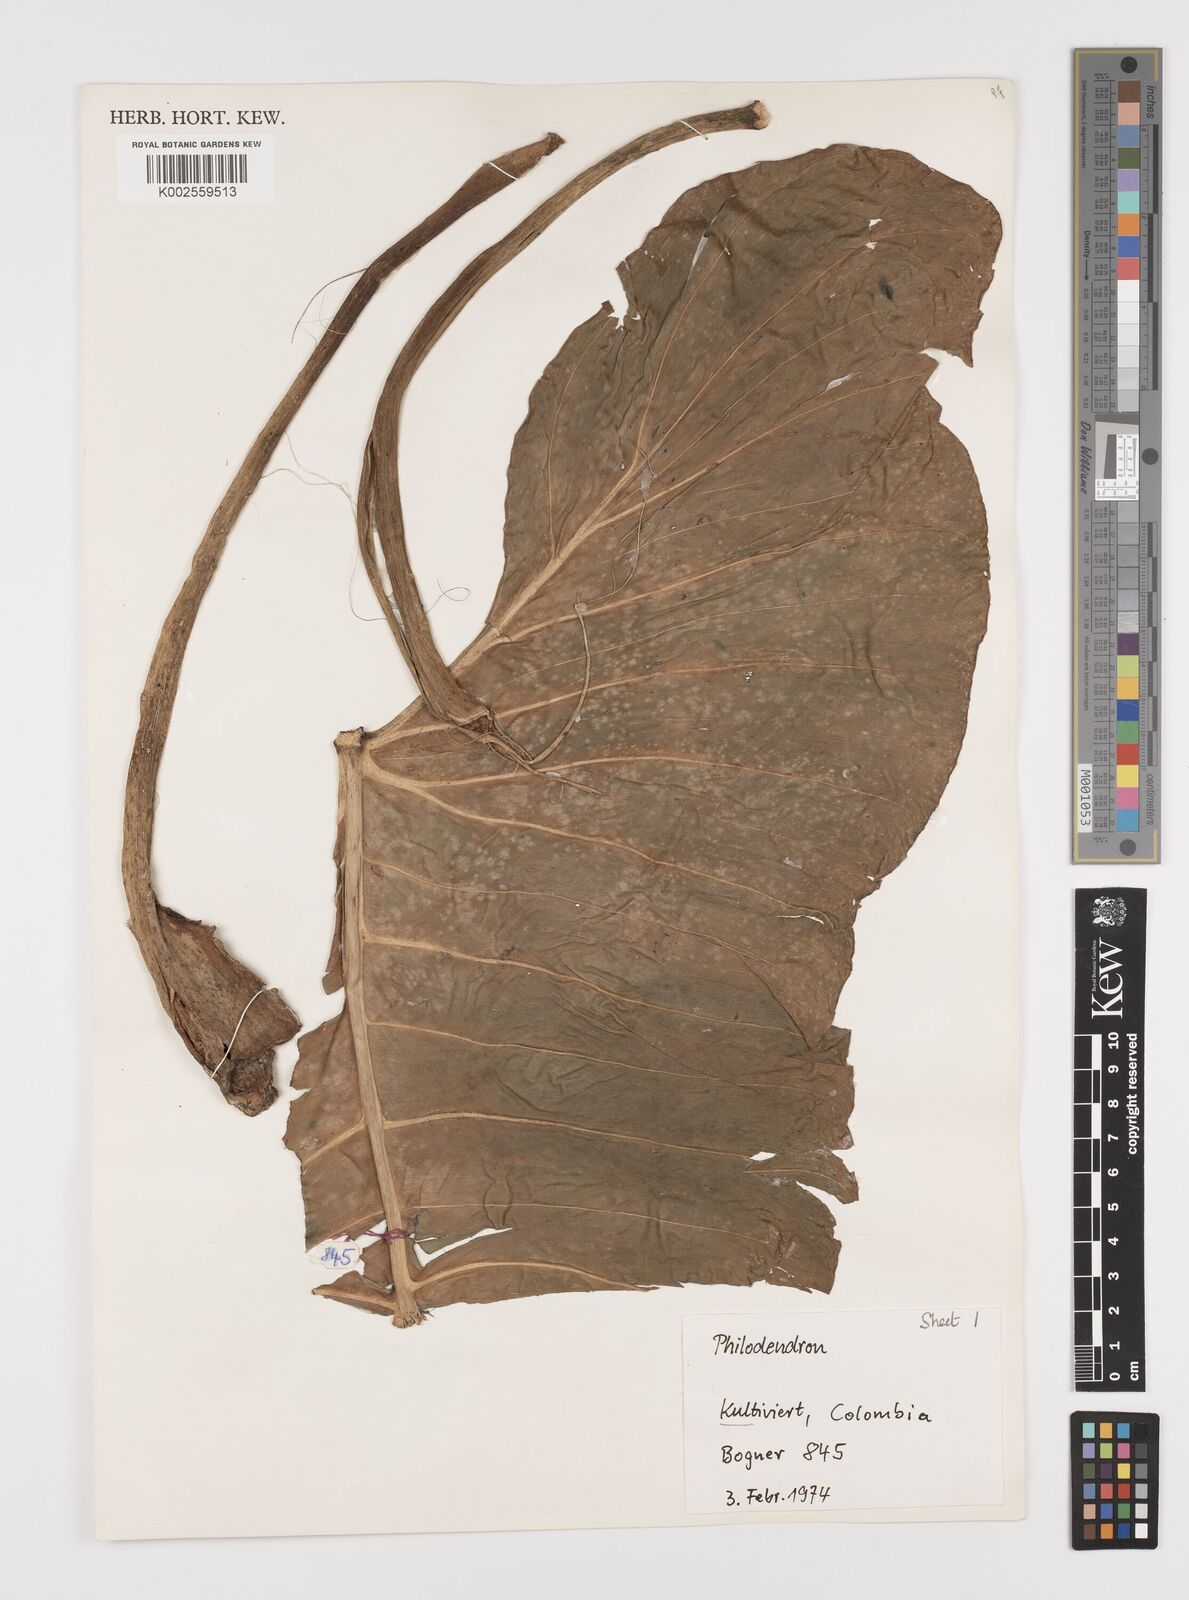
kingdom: Plantae
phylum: Tracheophyta
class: Liliopsida
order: Alismatales
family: Araceae
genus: Philodendron
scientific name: Philodendron
